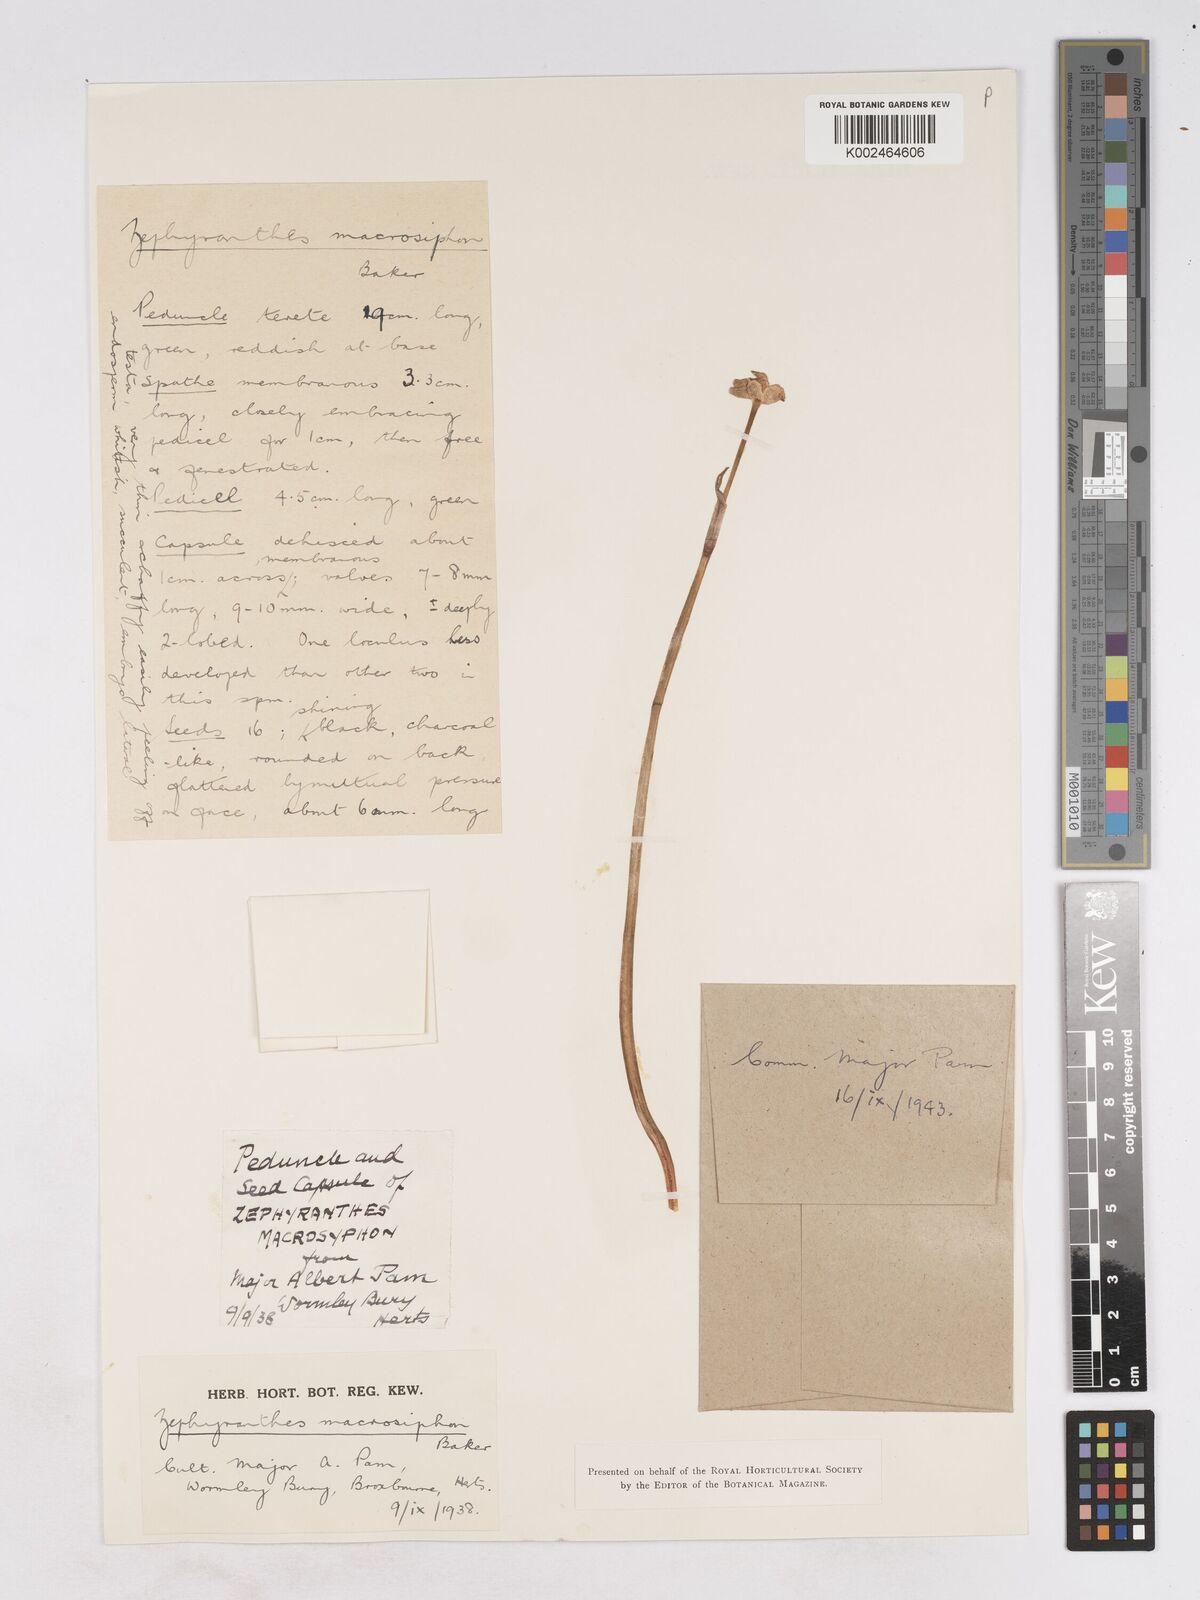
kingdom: Plantae
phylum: Tracheophyta
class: Liliopsida
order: Asparagales
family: Amaryllidaceae
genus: Zephyranthes
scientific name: Zephyranthes macrosiphon
